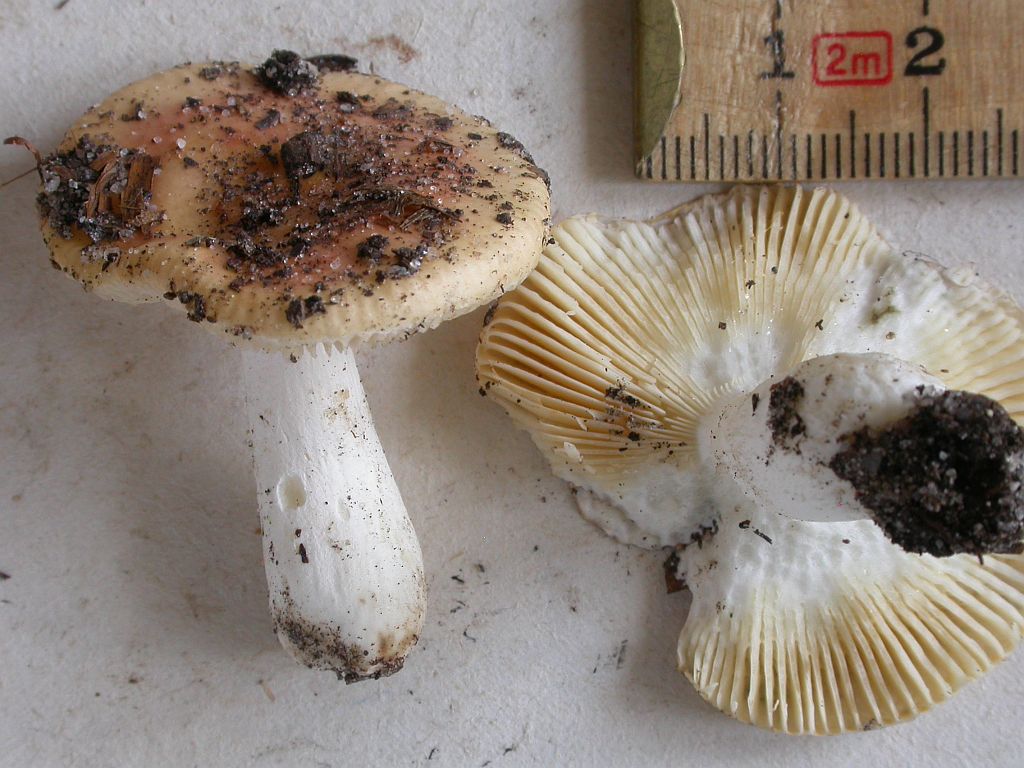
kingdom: Fungi
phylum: Basidiomycota
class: Agaricomycetes
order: Russulales
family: Russulaceae
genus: Russula
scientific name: Russula risigallina
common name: abrikos-skørhat
